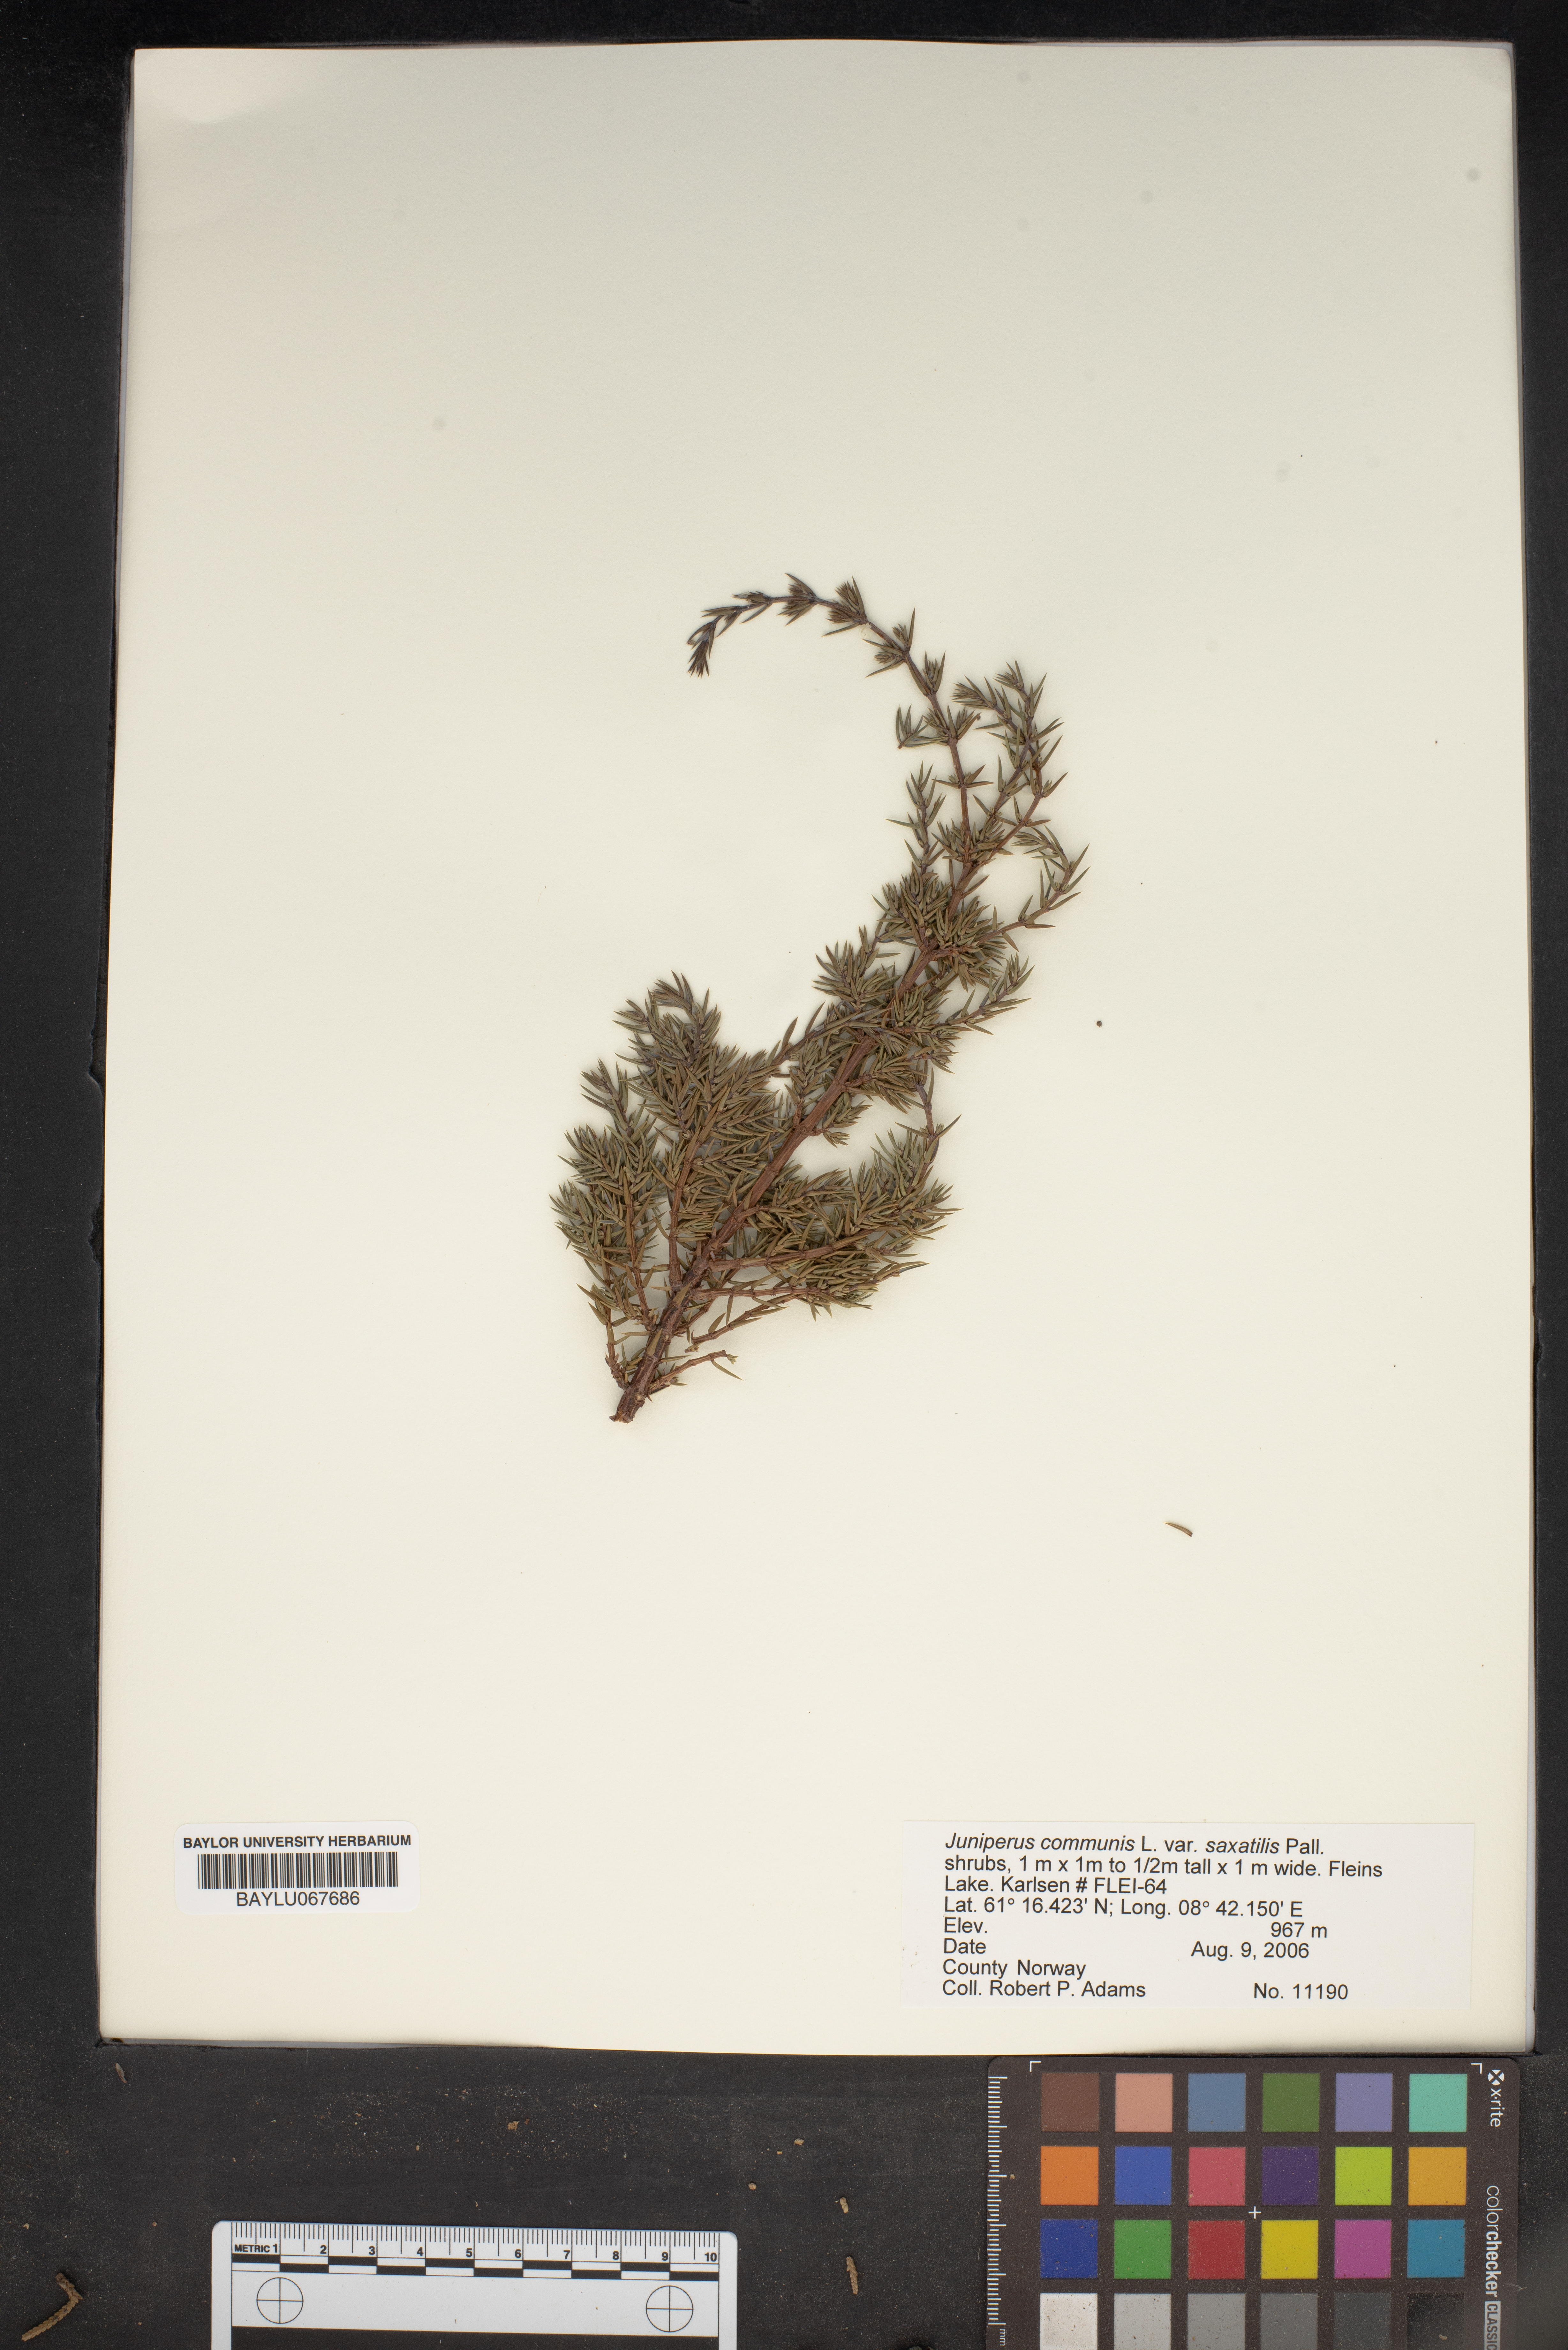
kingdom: Plantae
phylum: Tracheophyta
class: Pinopsida
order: Pinales
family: Cupressaceae
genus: Juniperus
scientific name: Juniperus communis
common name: Common juniper
